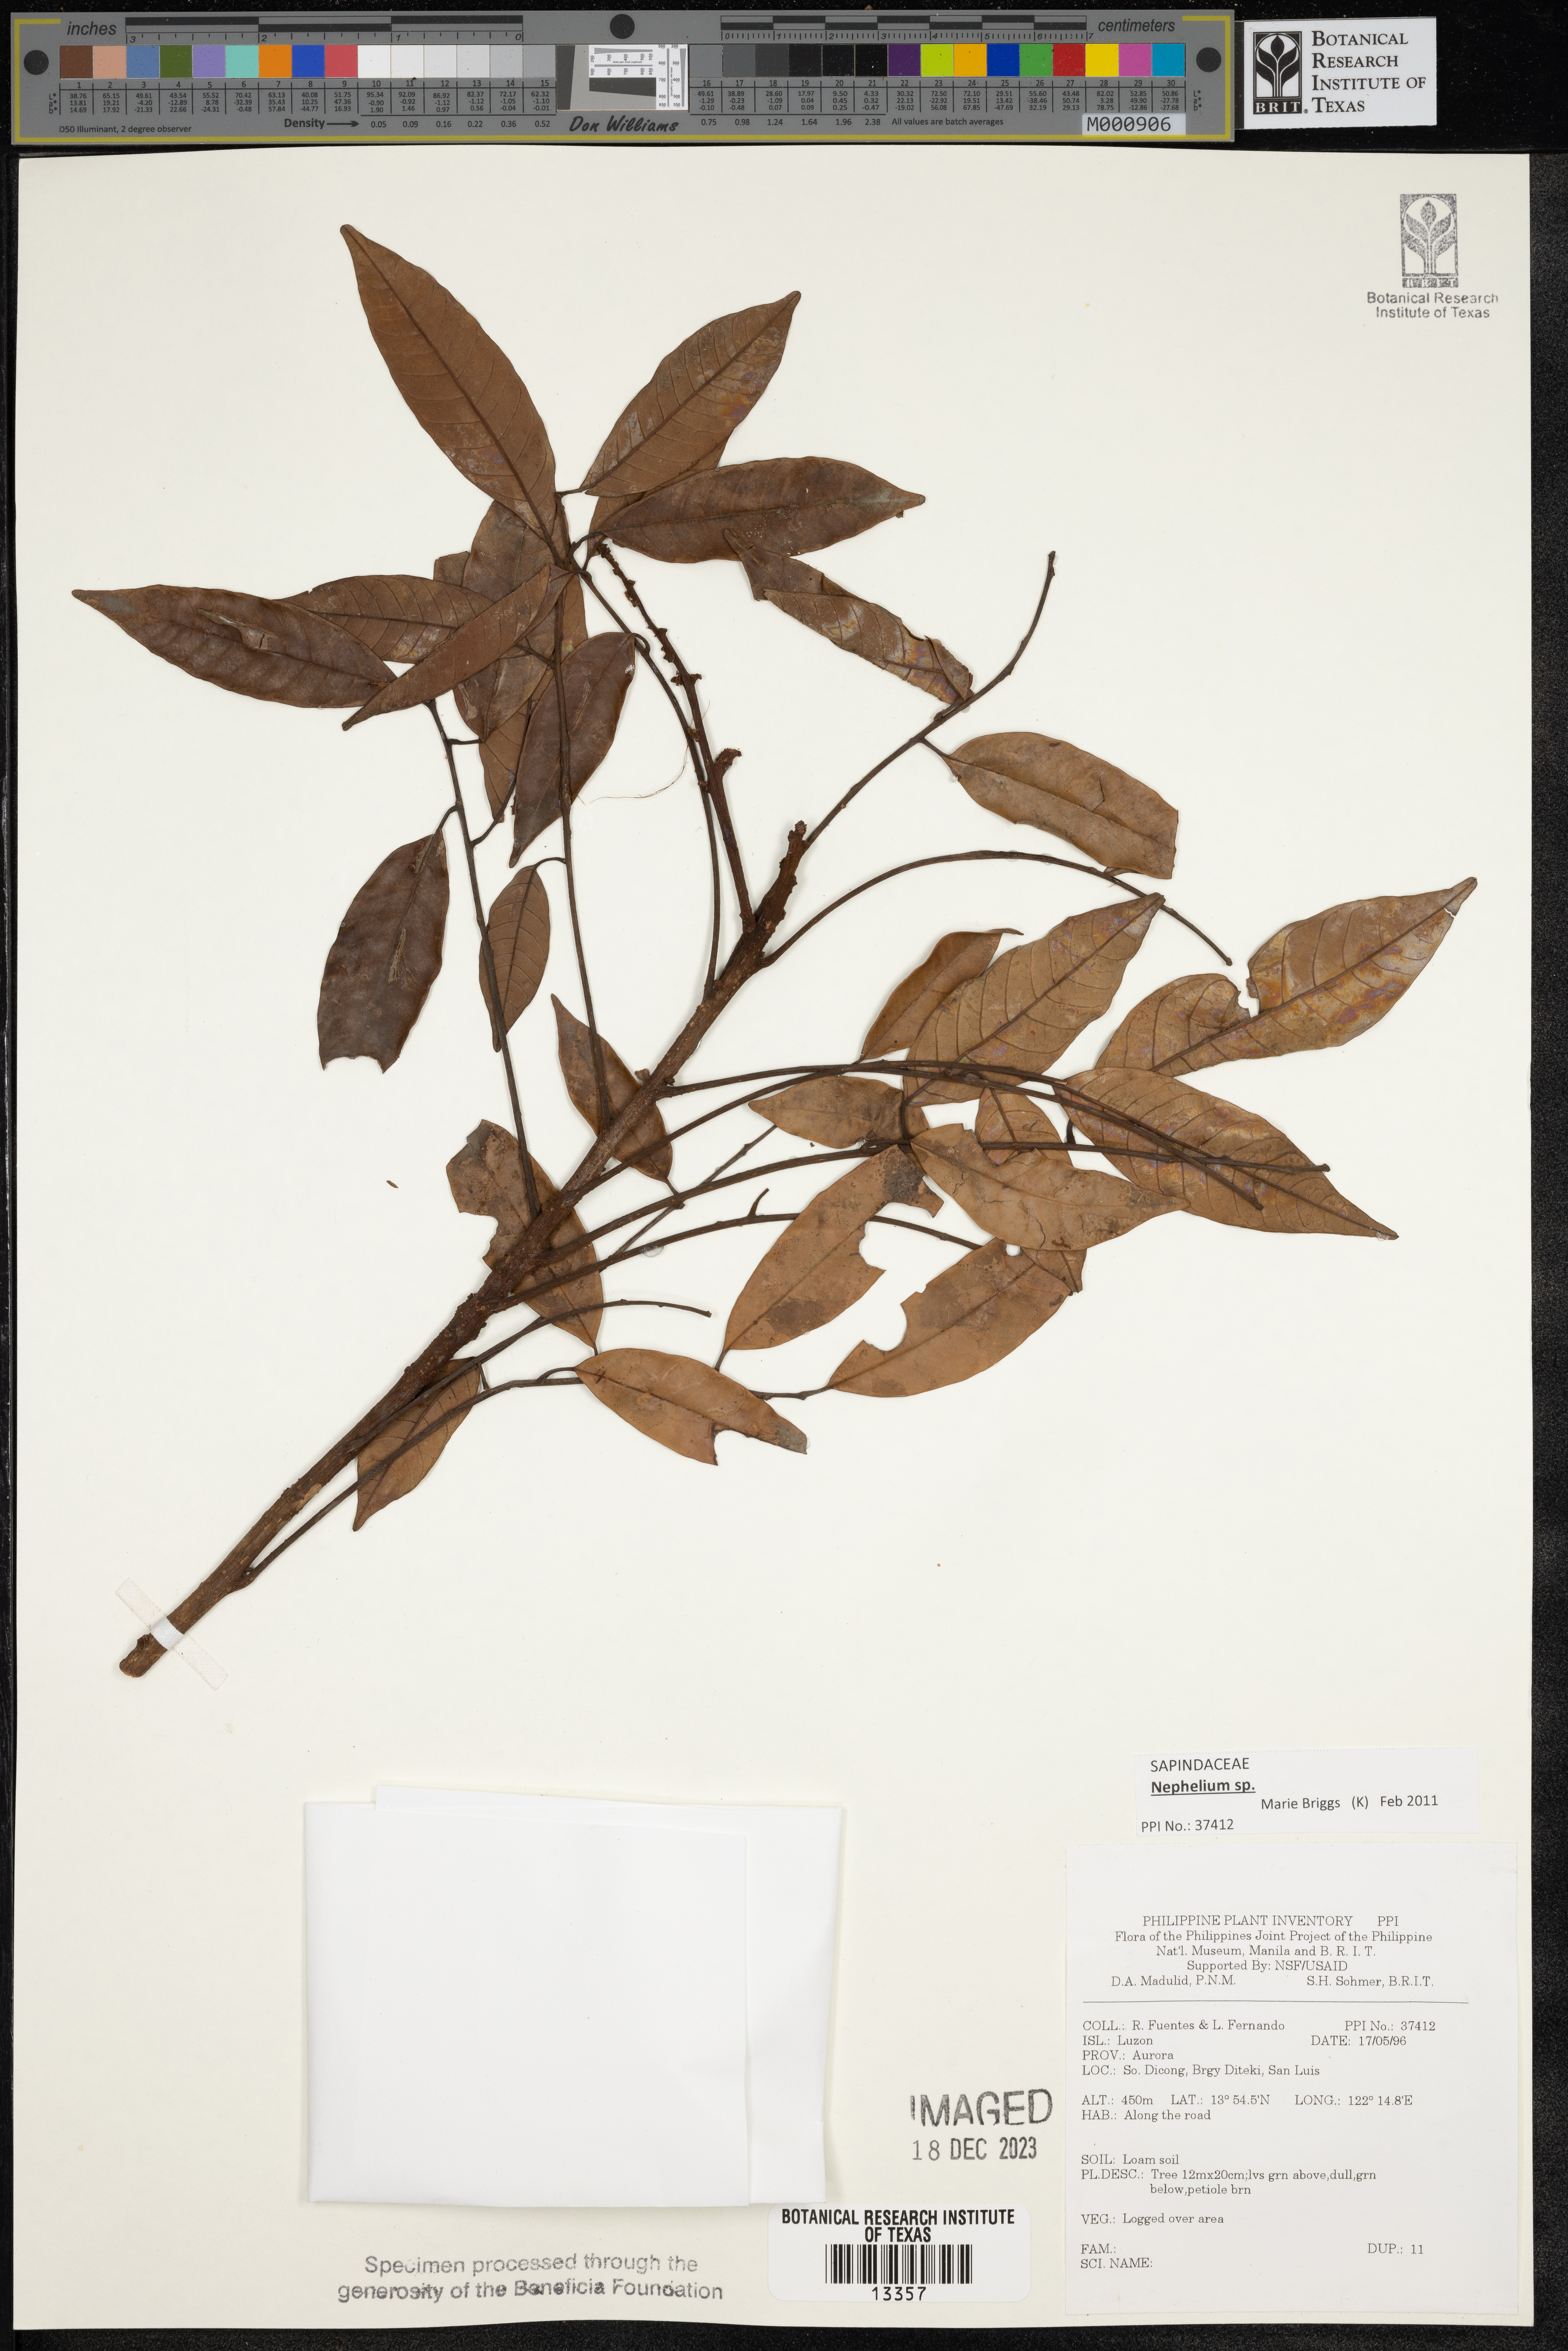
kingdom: Plantae
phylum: Tracheophyta
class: Magnoliopsida
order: Sapindales
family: Sapindaceae
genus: Nephelium
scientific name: Nephelium
